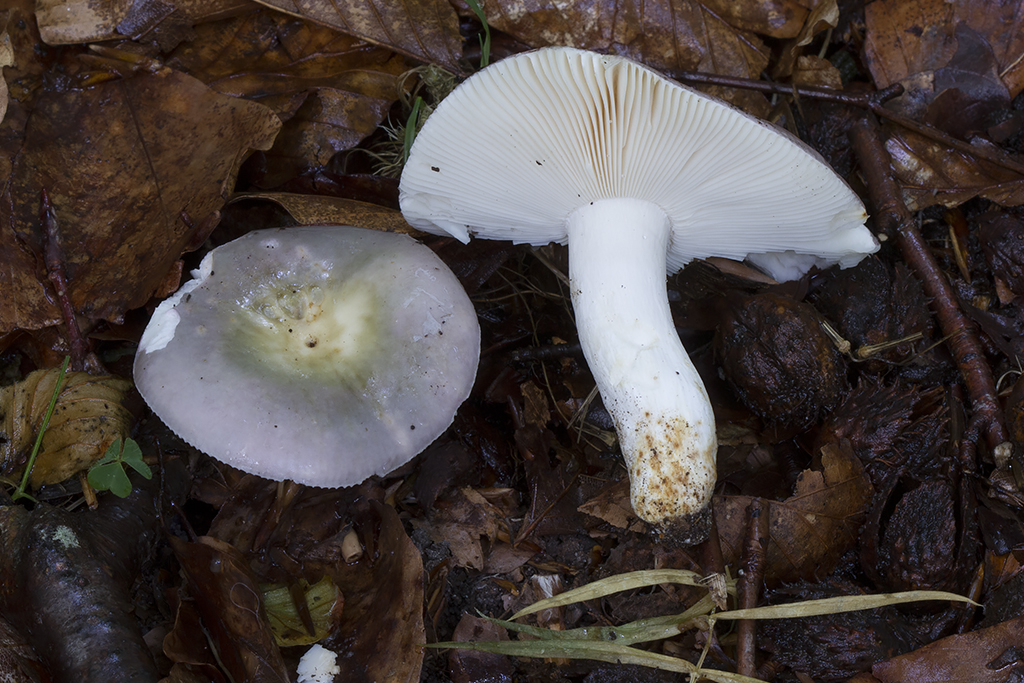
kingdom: Fungi
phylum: Basidiomycota
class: Agaricomycetes
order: Russulales
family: Russulaceae
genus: Russula
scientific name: Russula ionochlora
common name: violetgrøn skørhat
